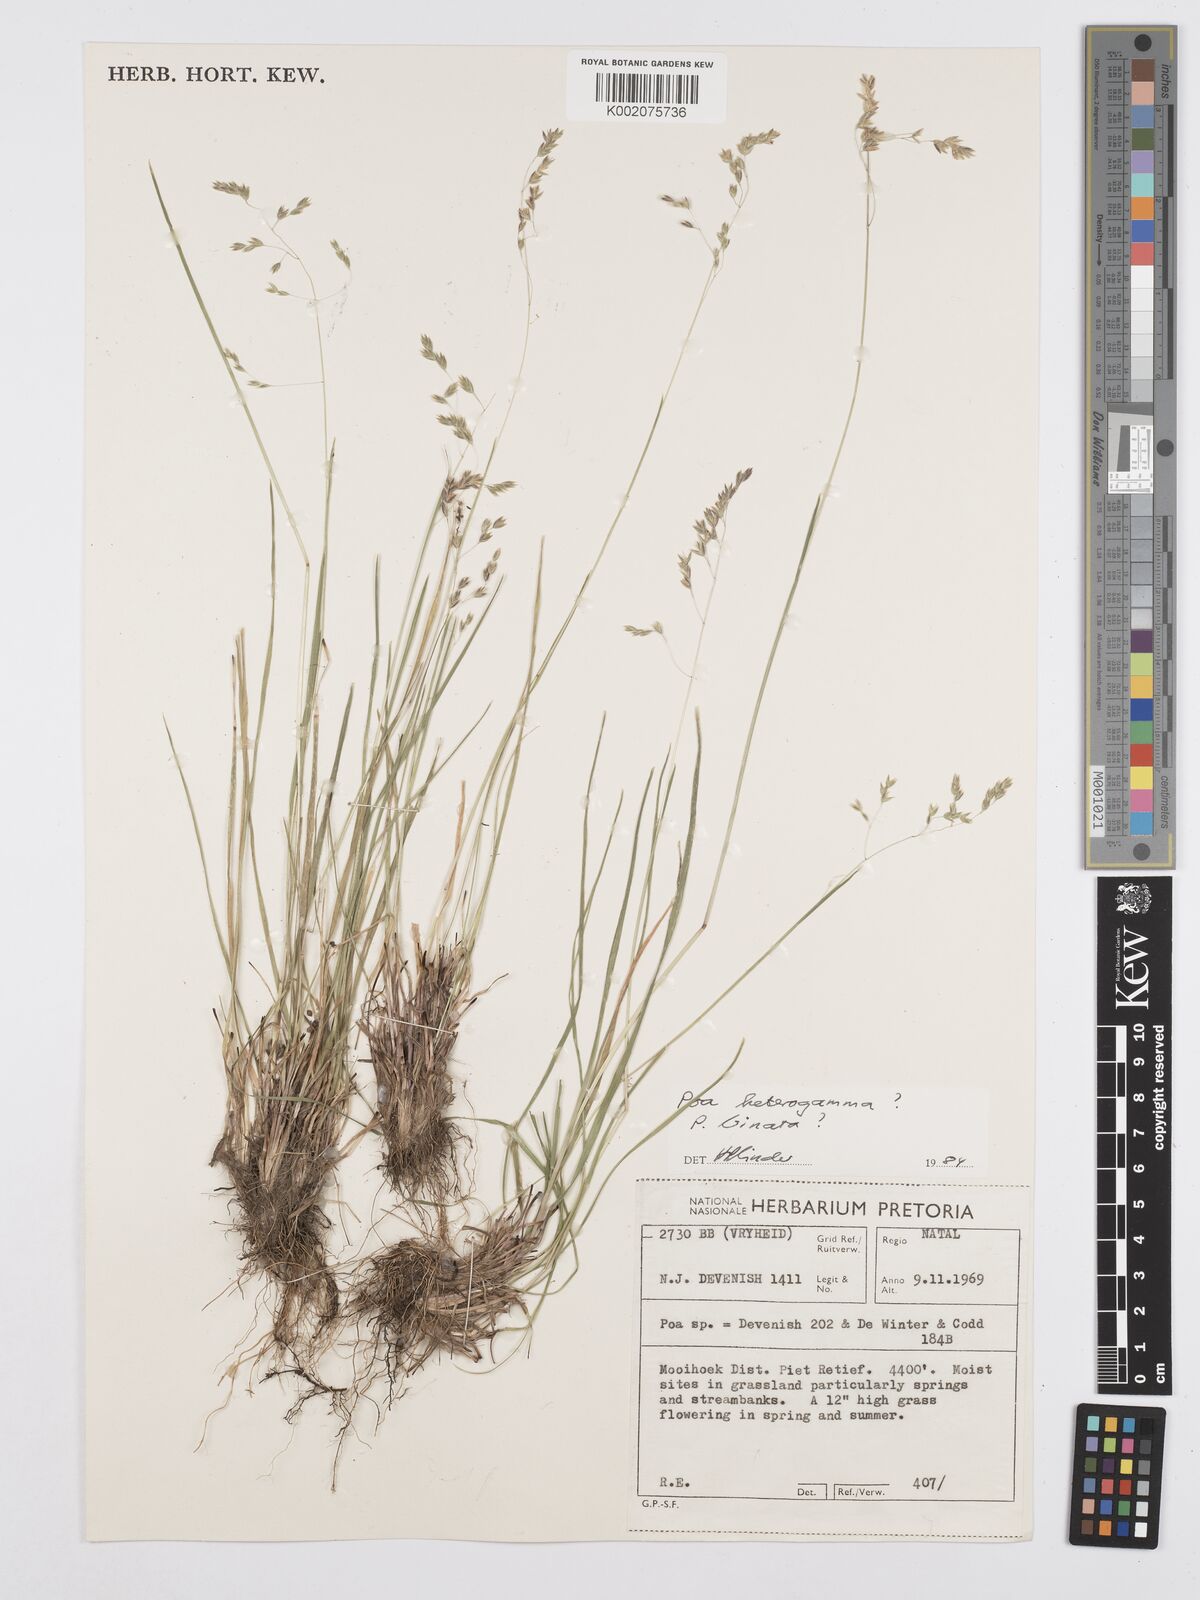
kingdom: Plantae
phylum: Tracheophyta
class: Liliopsida
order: Poales
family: Poaceae
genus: Poa
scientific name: Poa binata
